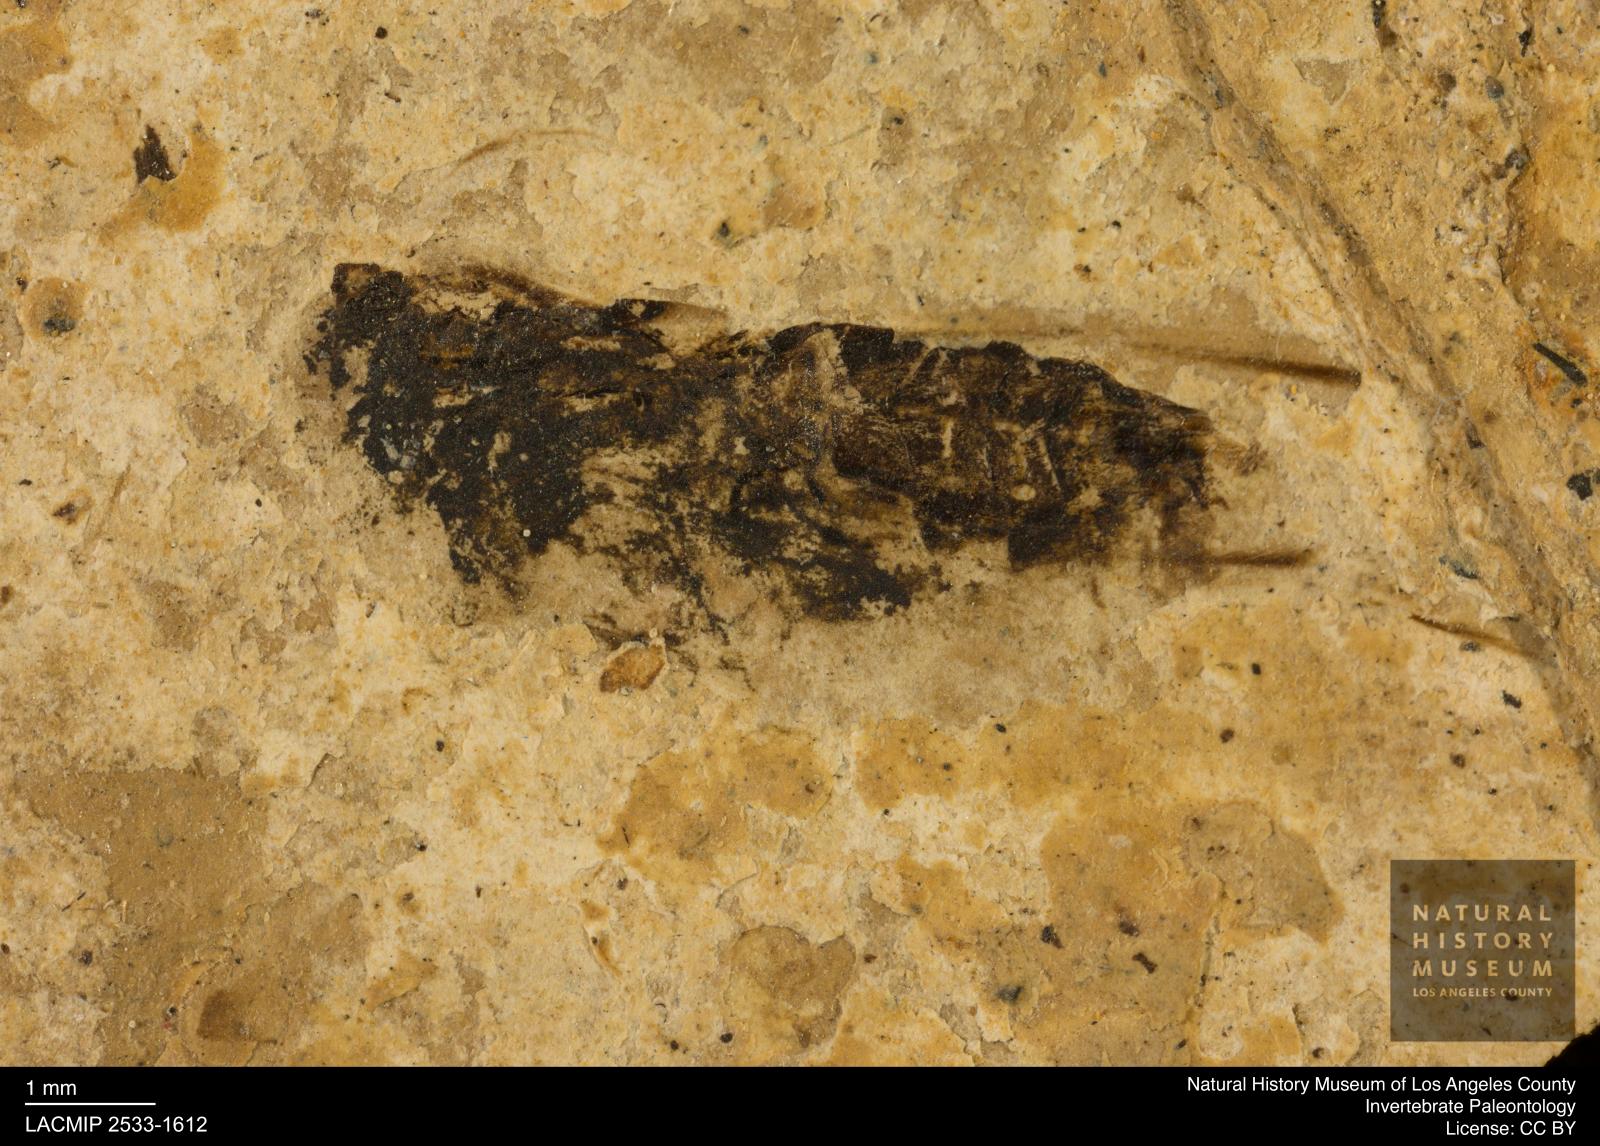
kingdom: Animalia
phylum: Arthropoda
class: Insecta
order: Hemiptera
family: Notonectidae
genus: Notonecta
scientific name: Notonecta
